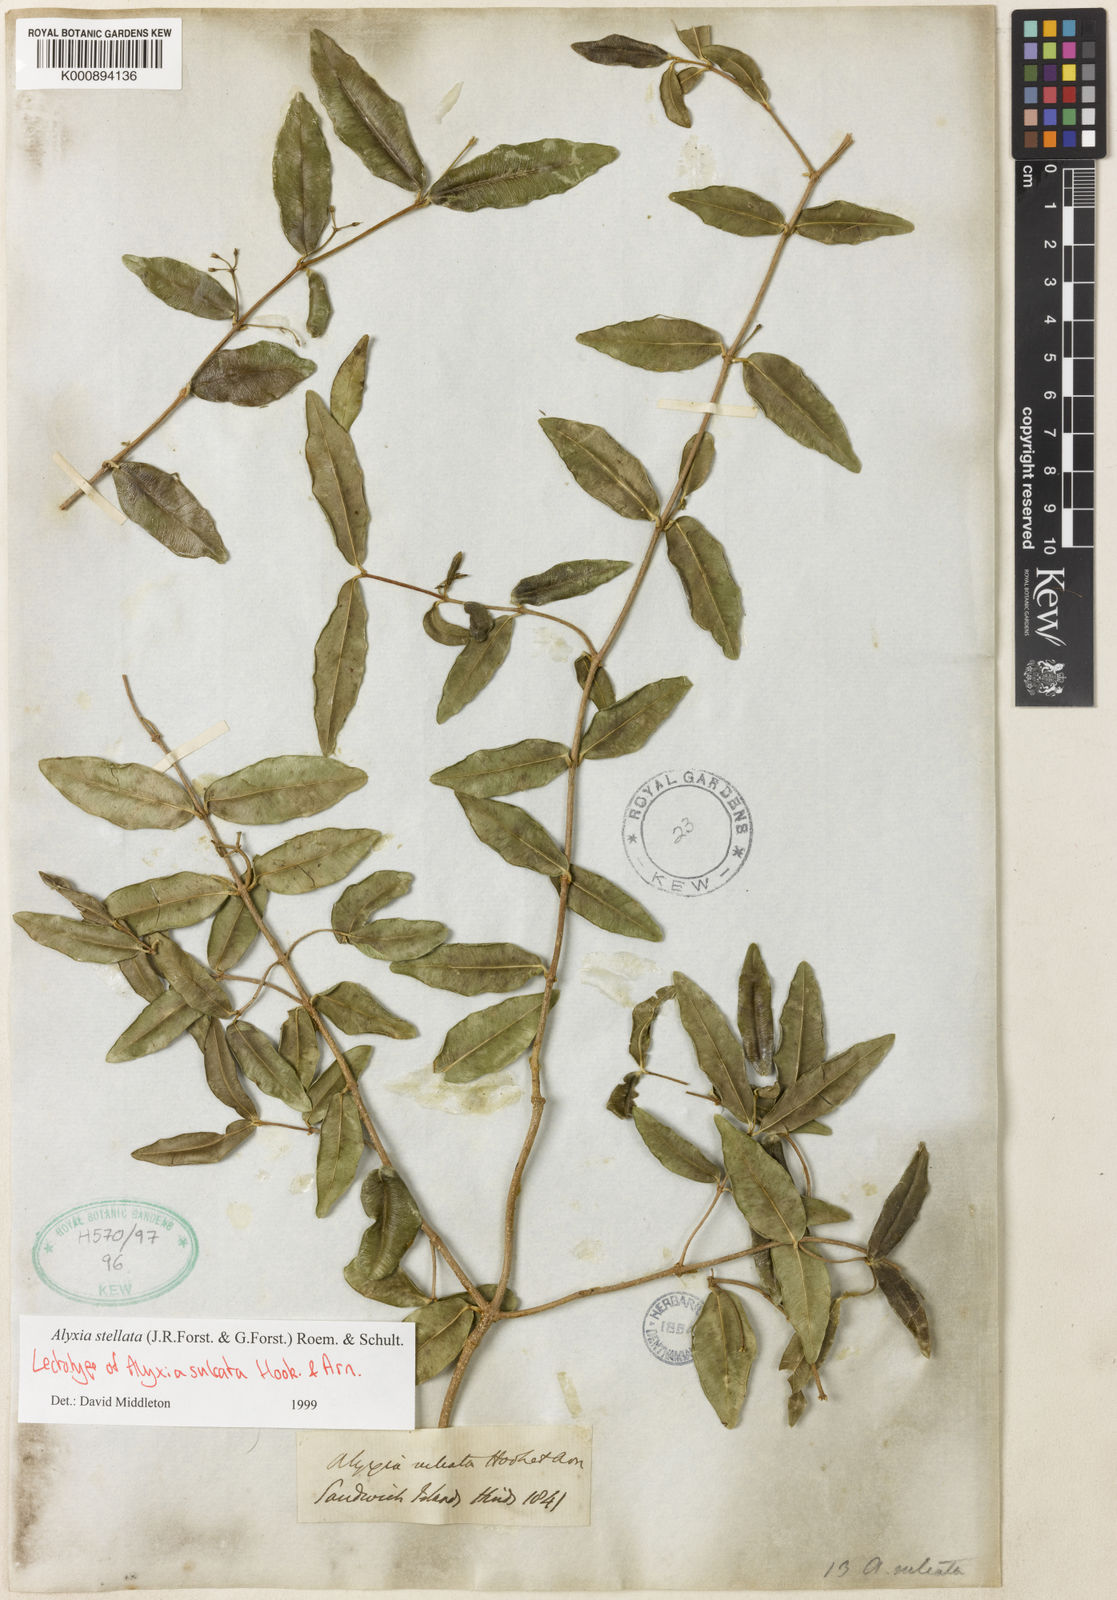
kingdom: Plantae
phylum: Tracheophyta
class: Magnoliopsida
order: Gentianales
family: Apocynaceae
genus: Alyxia
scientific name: Alyxia stellata
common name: Maile
